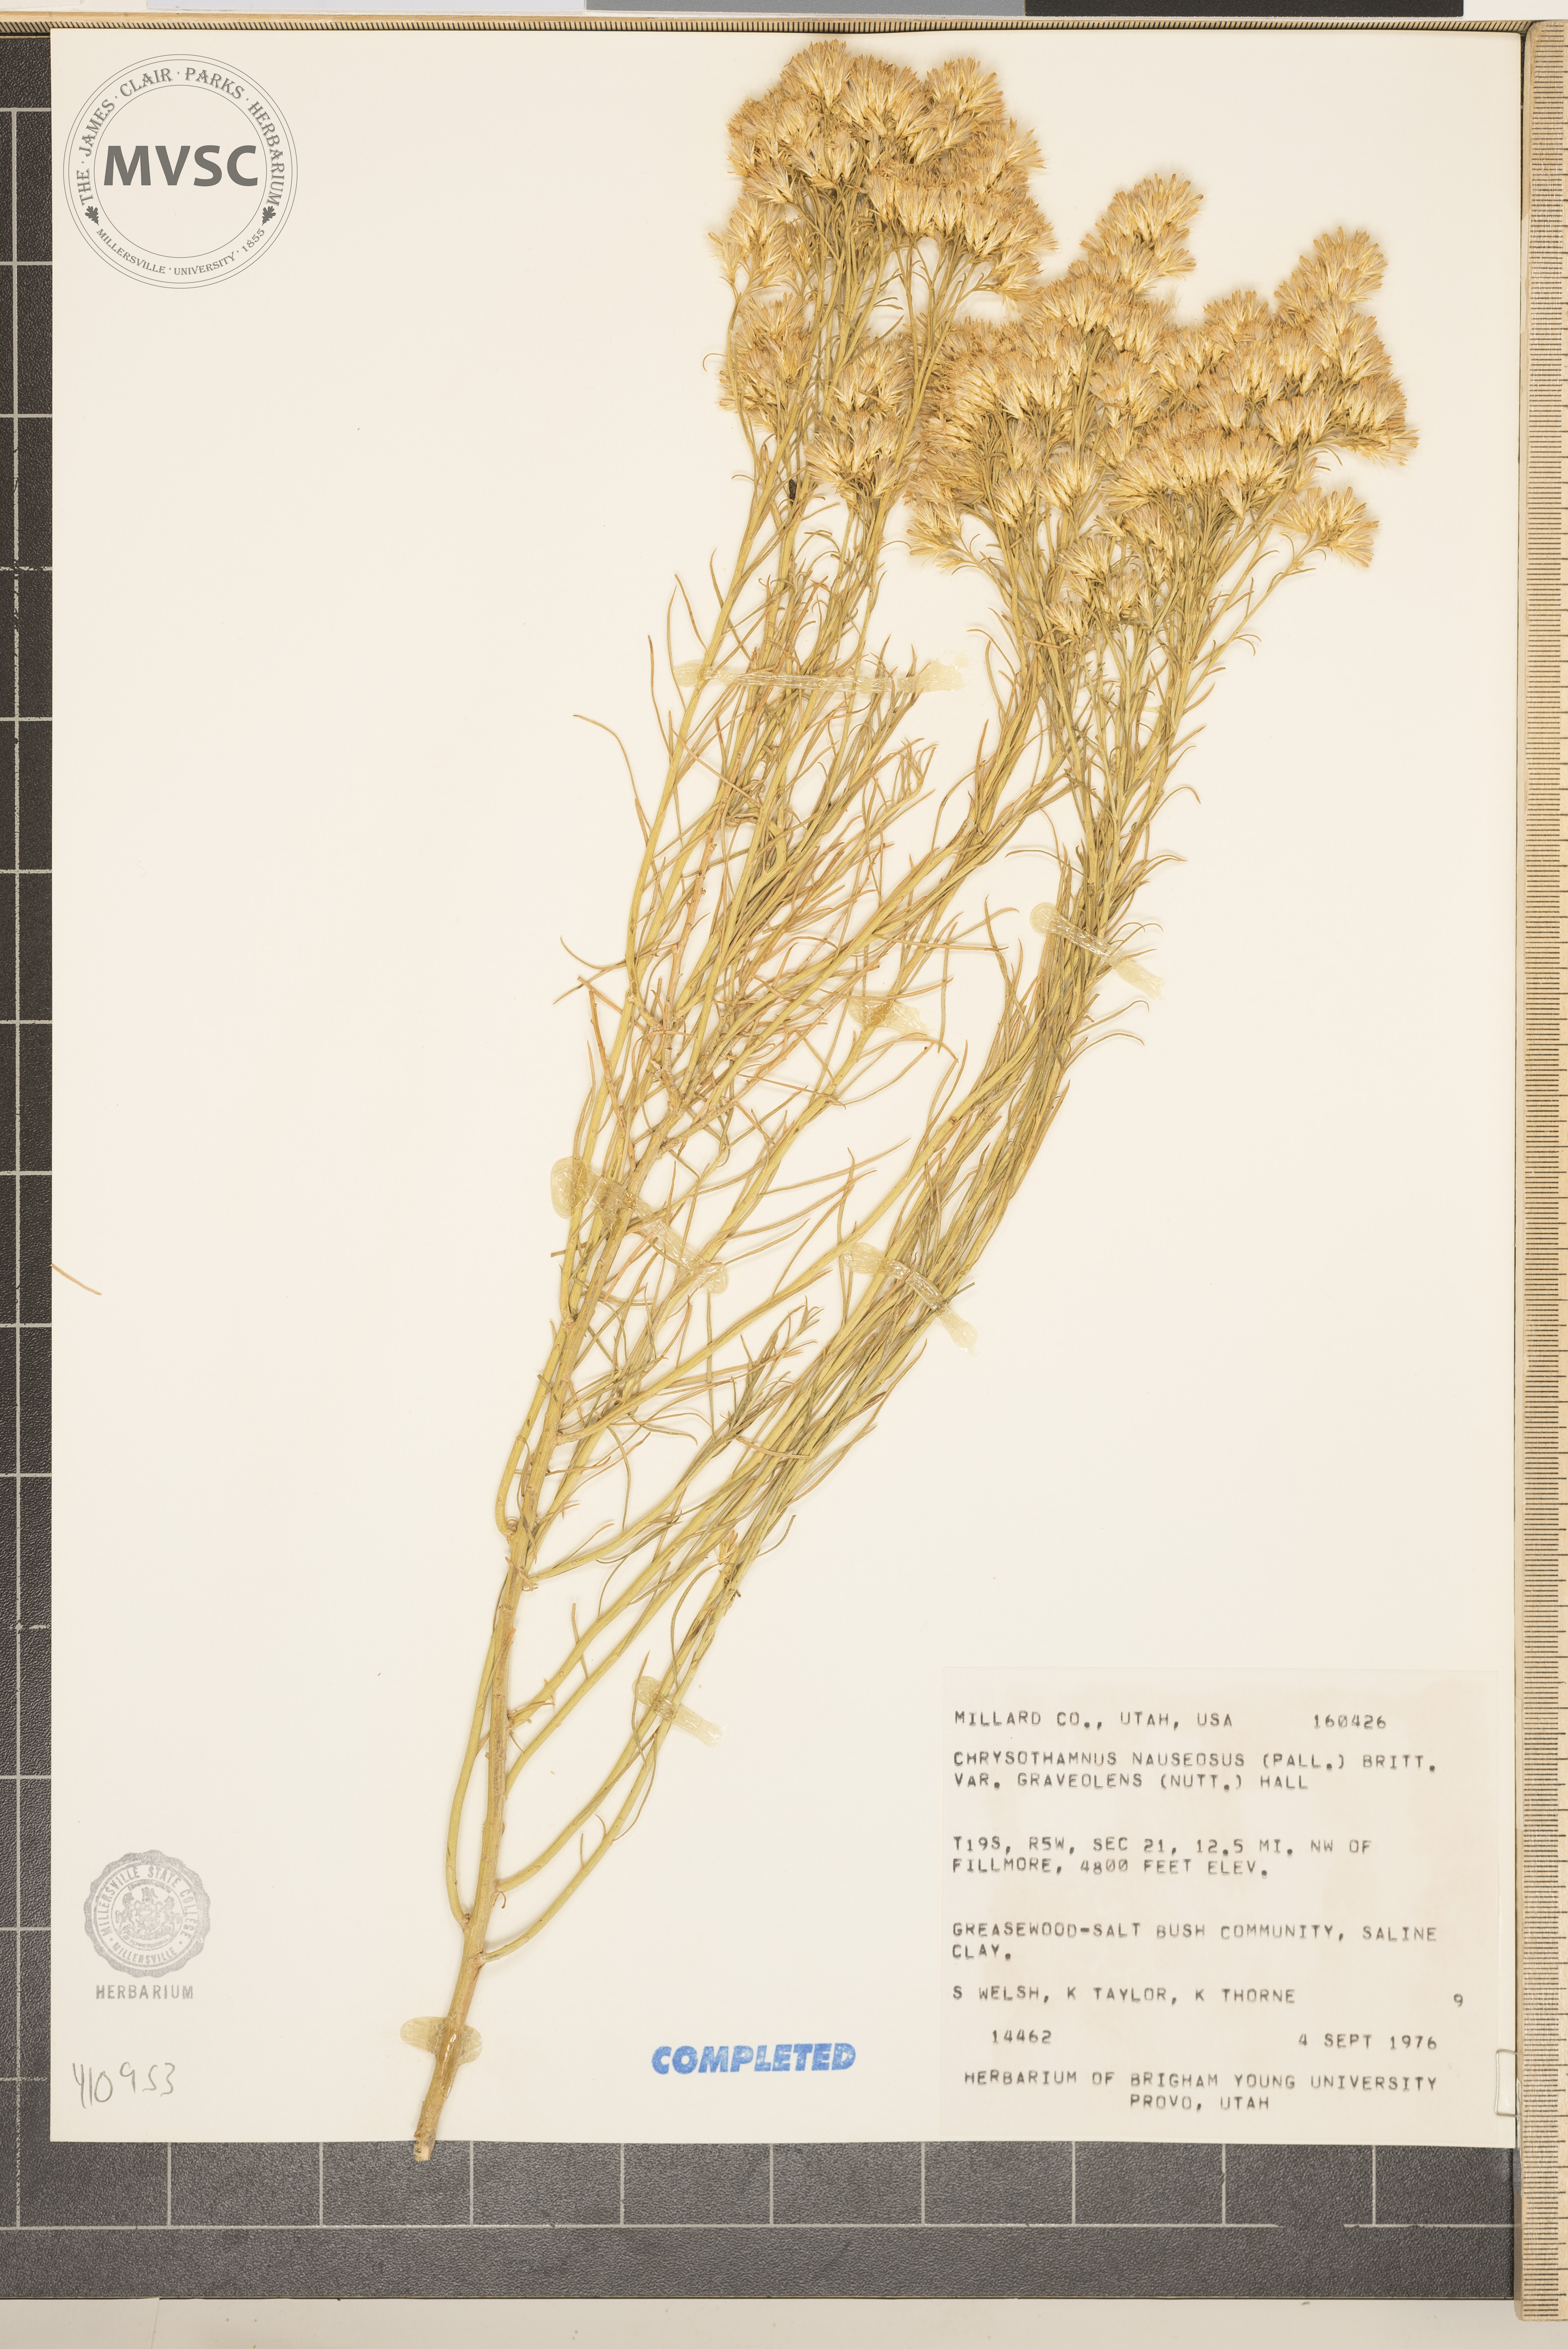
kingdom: Plantae
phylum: Tracheophyta
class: Magnoliopsida
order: Asterales
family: Asteraceae
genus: Ericameria
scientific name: Ericameria nauseosa
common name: Rubber rabbitbrush
